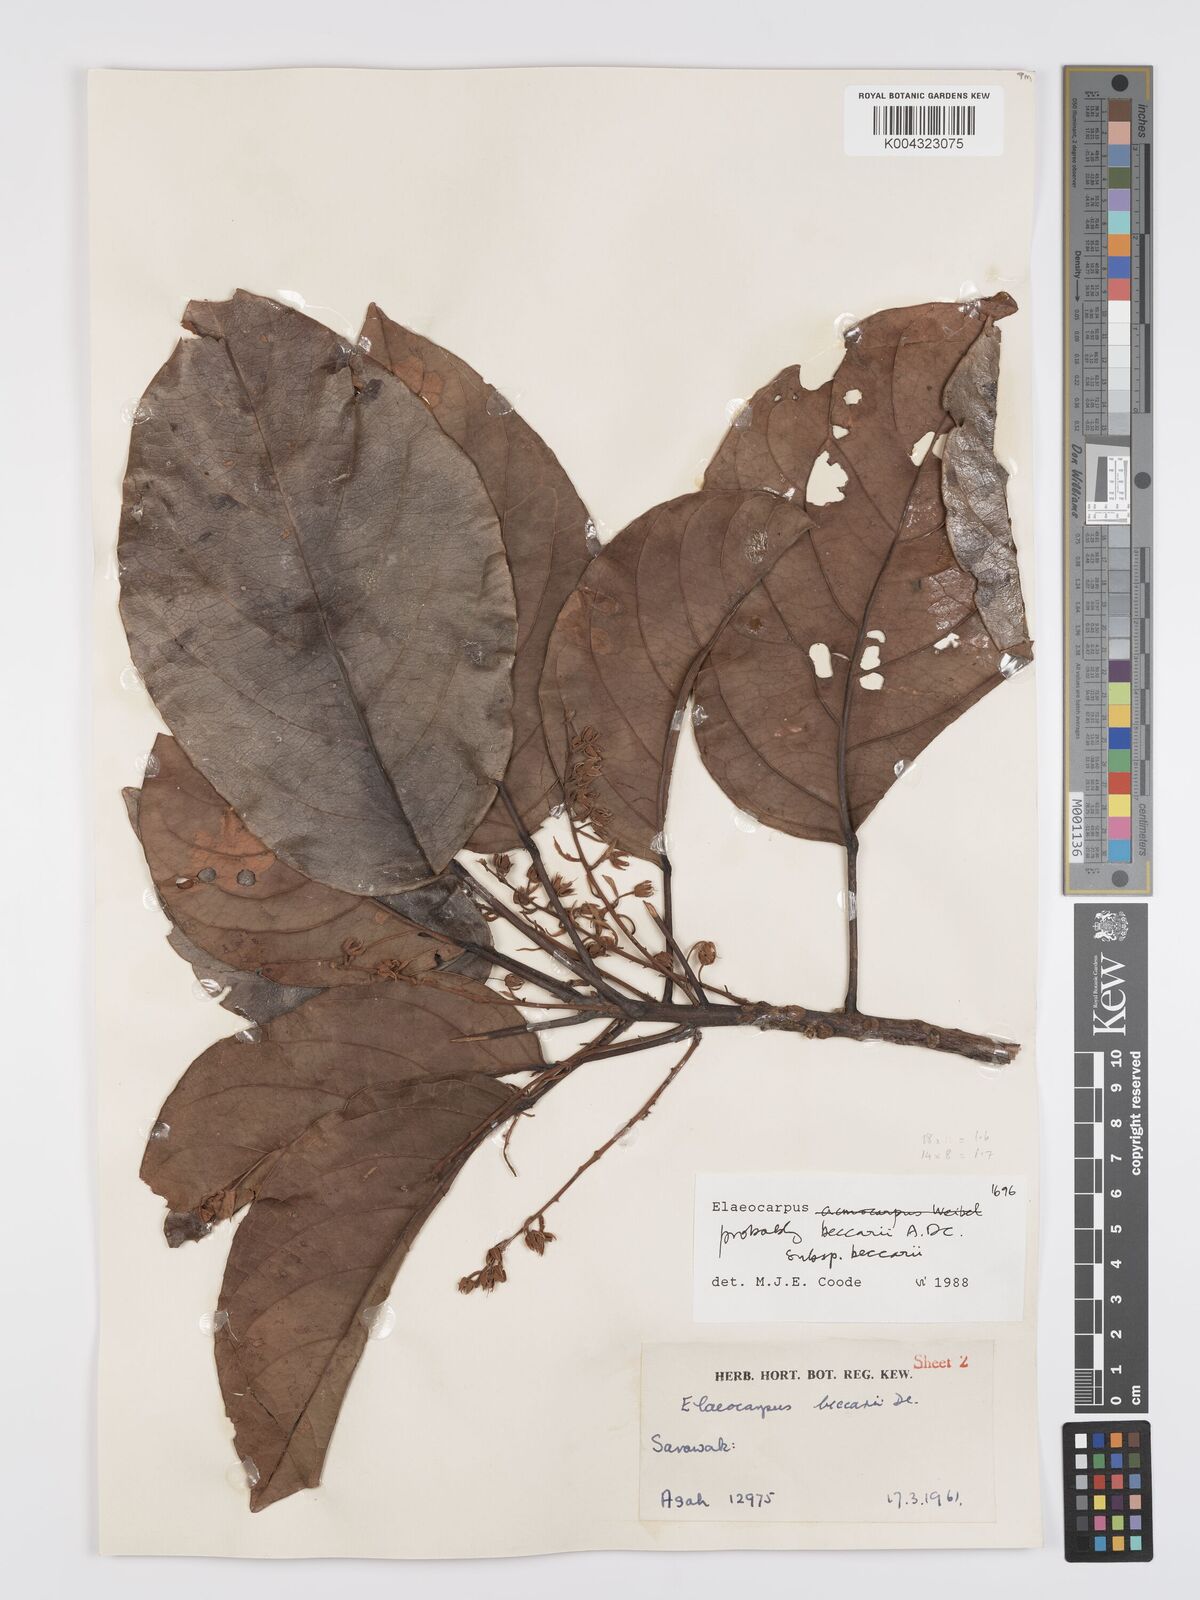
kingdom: Plantae
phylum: Tracheophyta
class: Magnoliopsida
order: Oxalidales
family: Elaeocarpaceae
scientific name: Elaeocarpaceae
